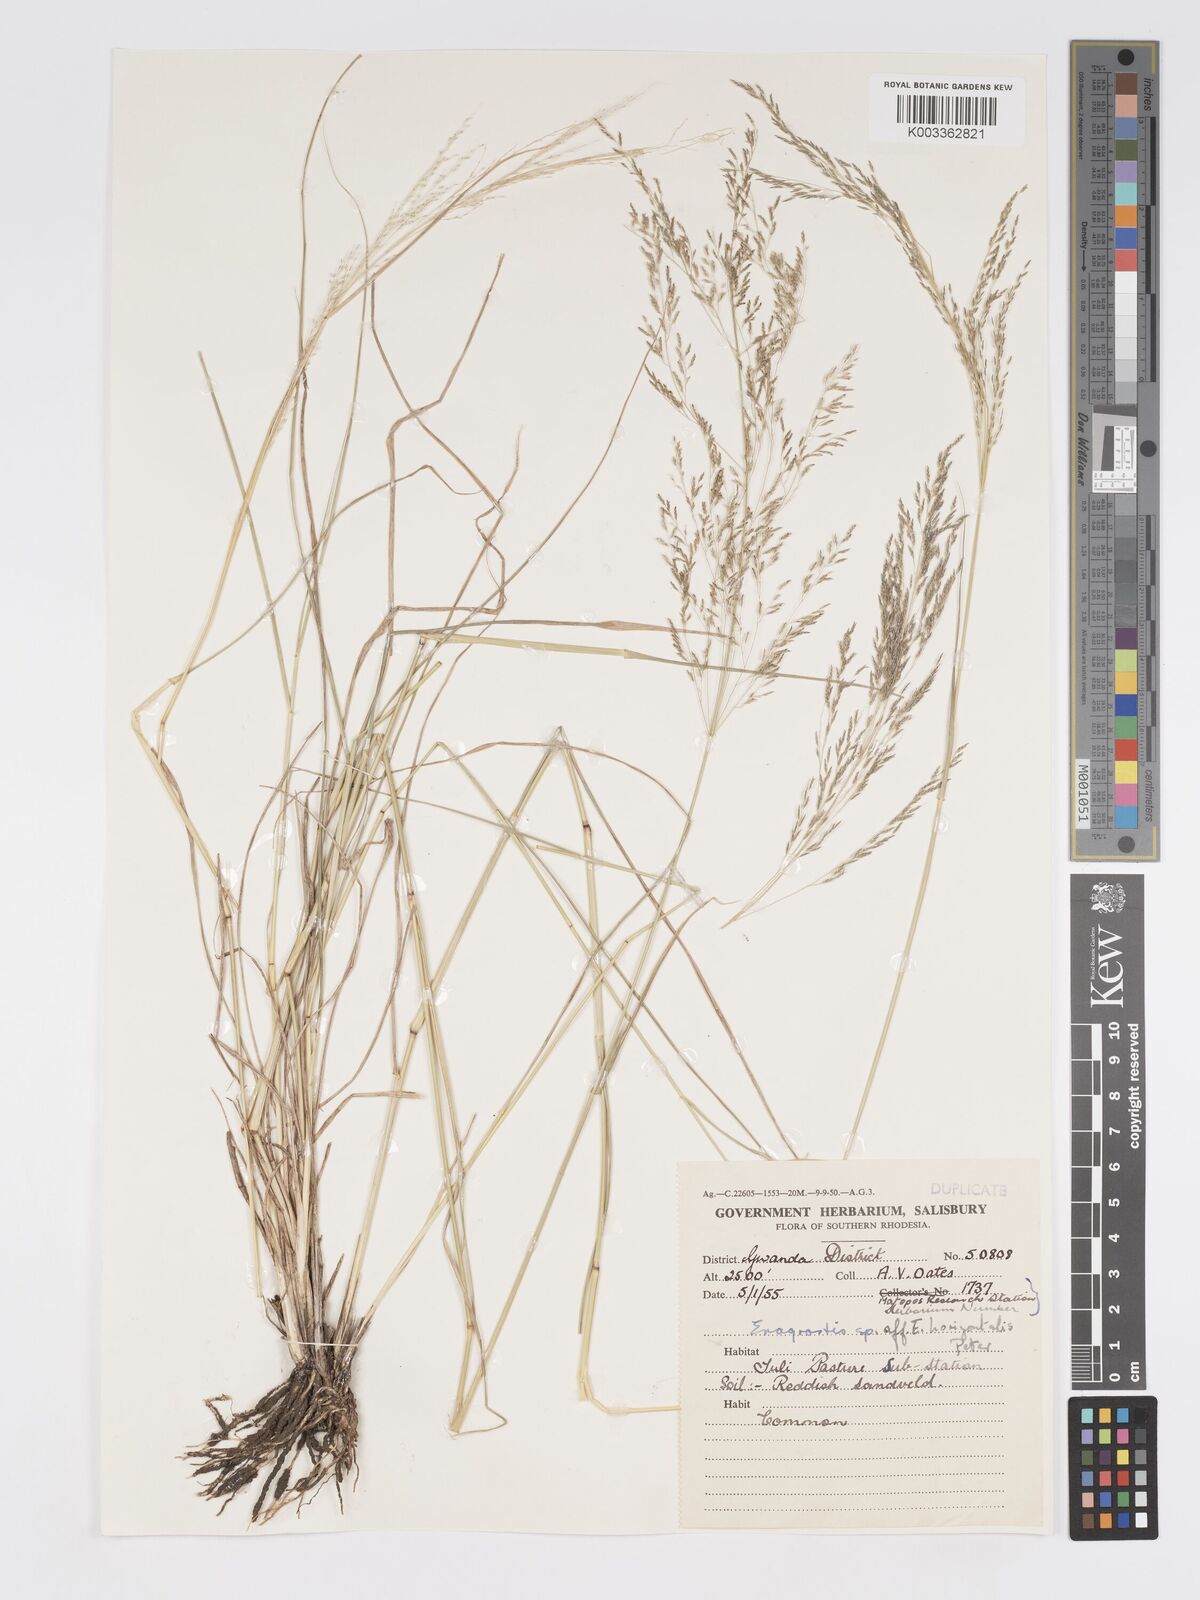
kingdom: Plantae
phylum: Tracheophyta
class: Liliopsida
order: Poales
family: Poaceae
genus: Eragrostis
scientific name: Eragrostis cylindriflora
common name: Cylinderflower lovegrass
